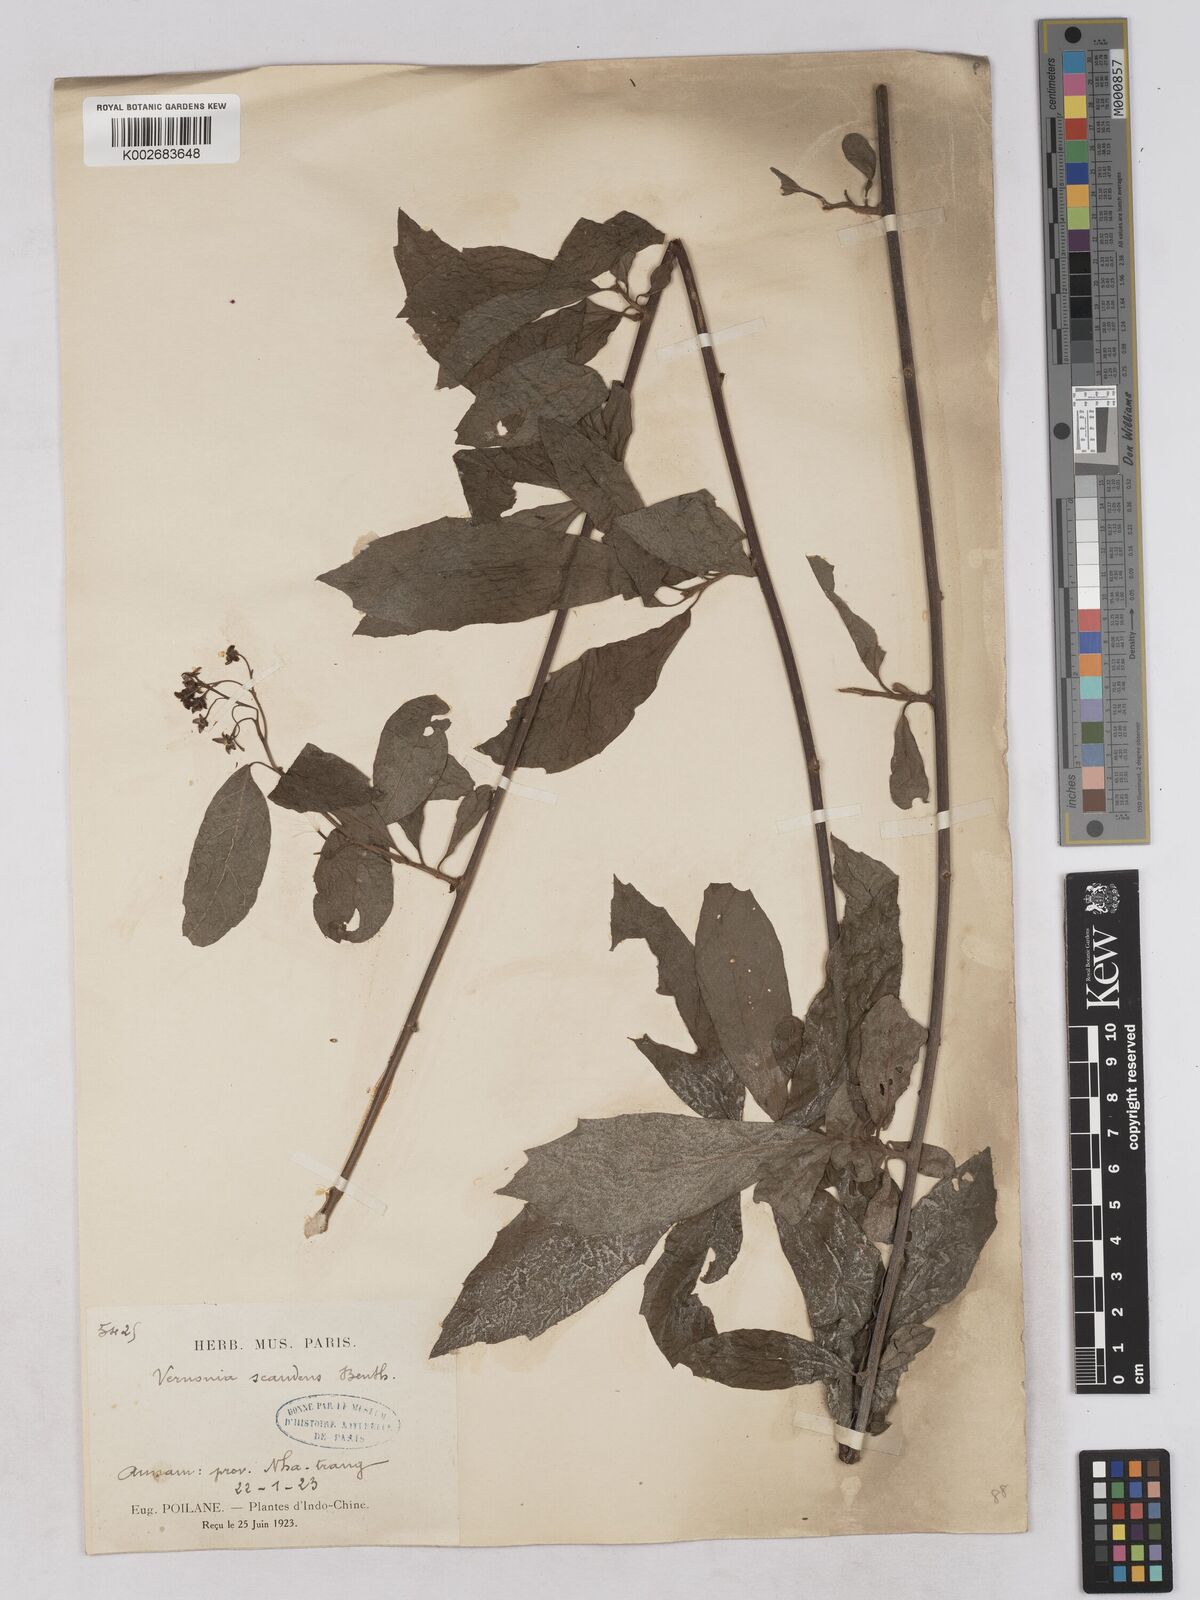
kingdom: Plantae
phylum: Tracheophyta
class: Magnoliopsida
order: Asterales
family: Asteraceae
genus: Decaneuropsis
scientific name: Decaneuropsis obovata
